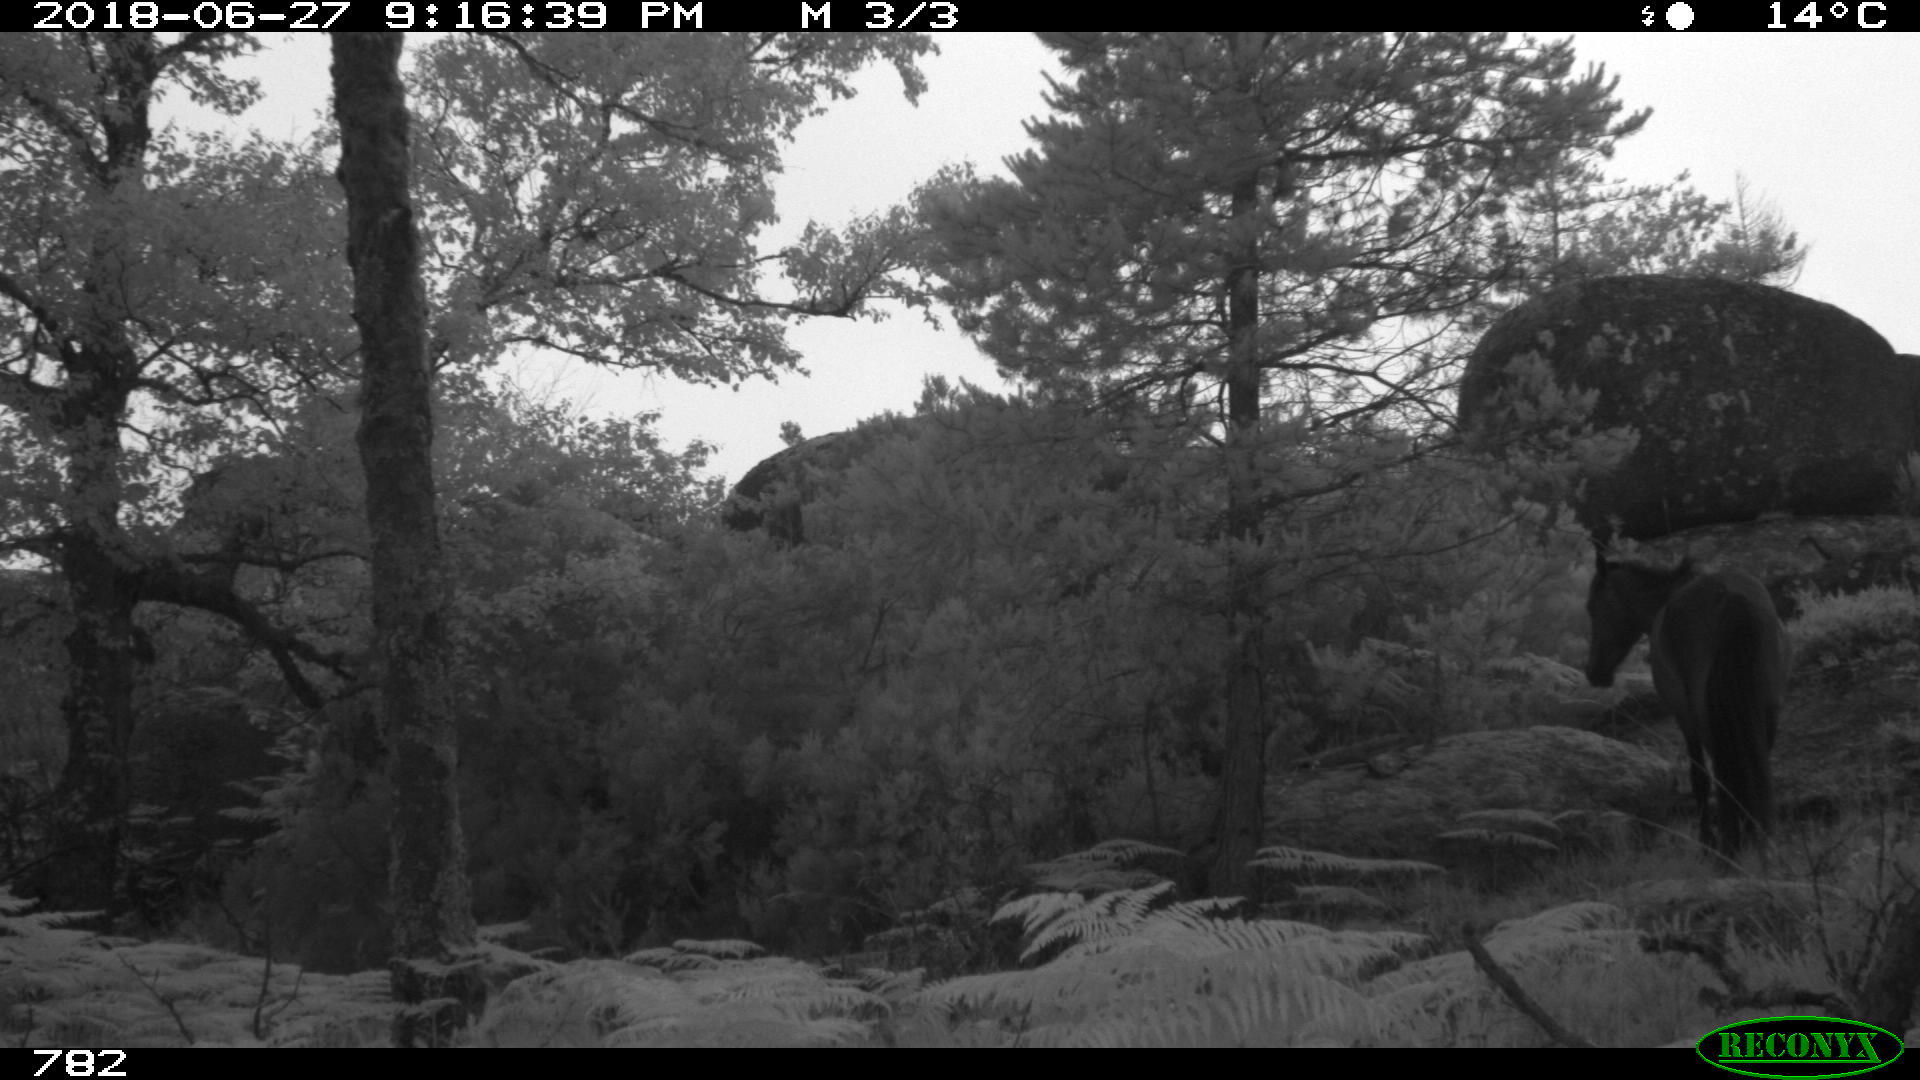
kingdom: Animalia
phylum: Chordata
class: Mammalia
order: Perissodactyla
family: Equidae
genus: Equus
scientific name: Equus caballus
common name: Horse
